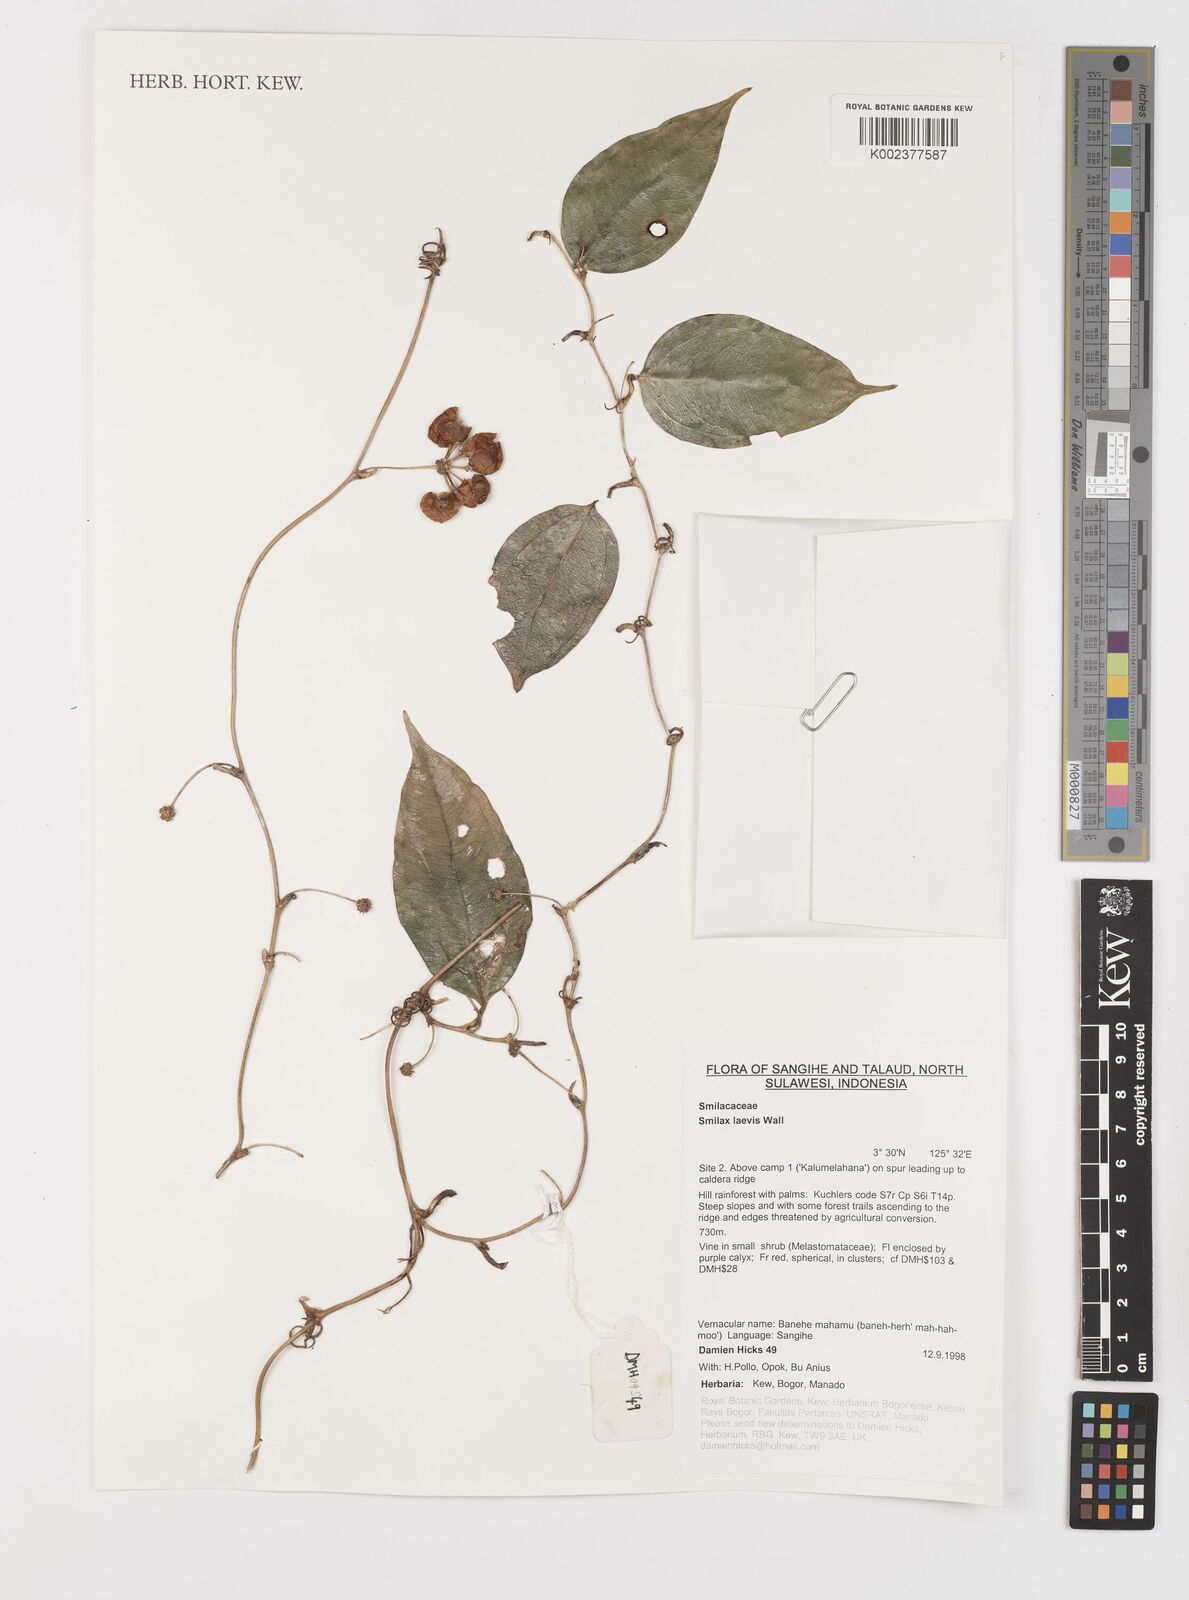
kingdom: Plantae
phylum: Tracheophyta
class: Liliopsida
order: Liliales
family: Smilacaceae
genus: Smilax
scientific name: Smilax laevis
